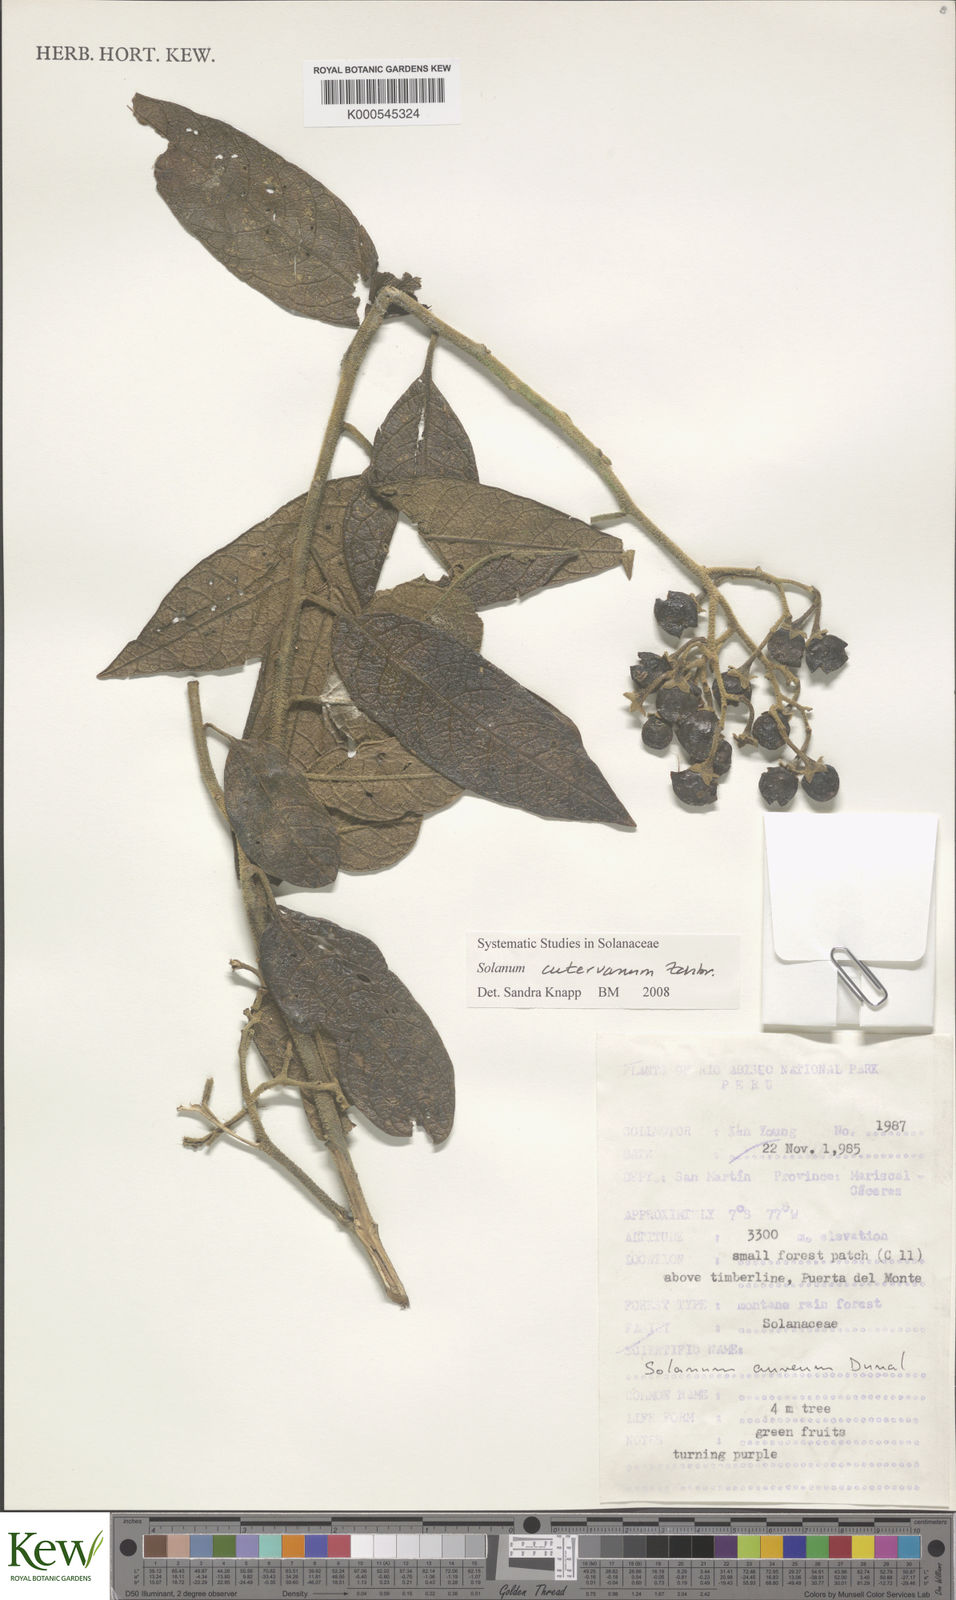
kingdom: Plantae
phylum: Tracheophyta
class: Magnoliopsida
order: Solanales
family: Solanaceae
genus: Solanum
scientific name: Solanum cutervanum
